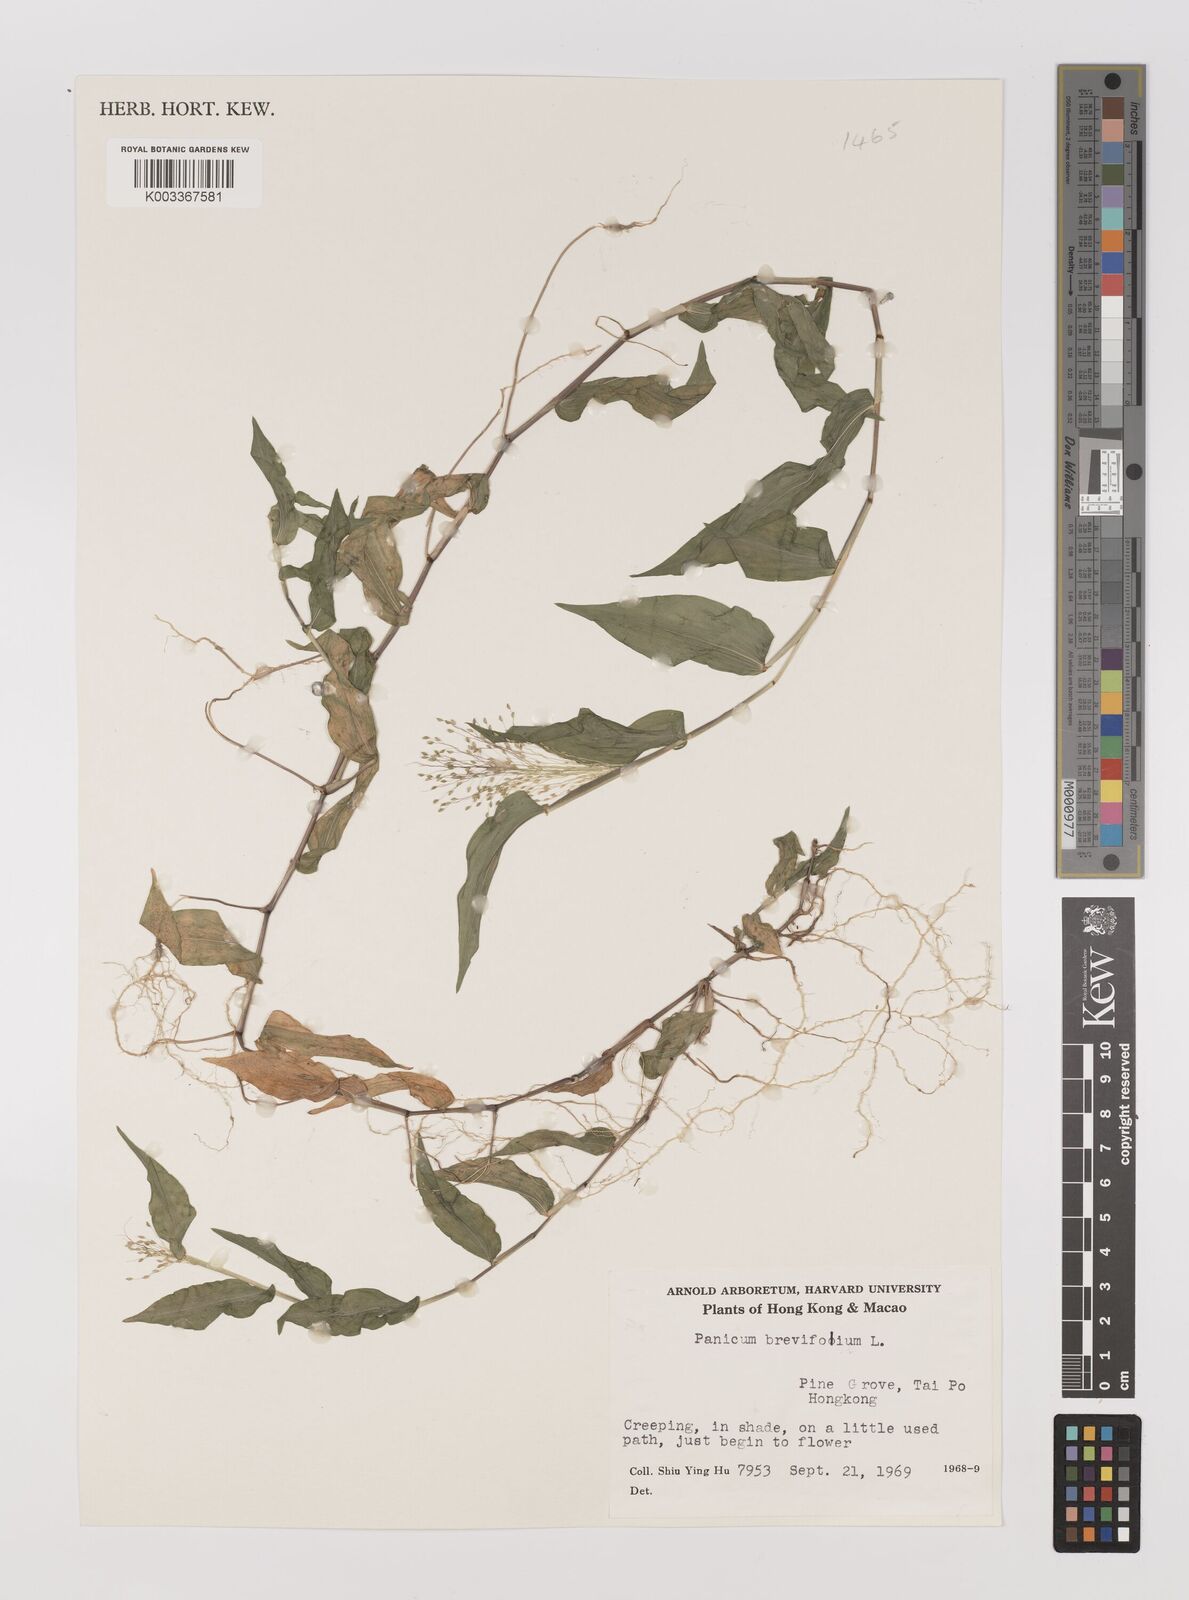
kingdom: Plantae
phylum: Tracheophyta
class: Liliopsida
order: Poales
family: Poaceae
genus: Panicum
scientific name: Panicum brevifolium
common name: Shortleaf panic grass
